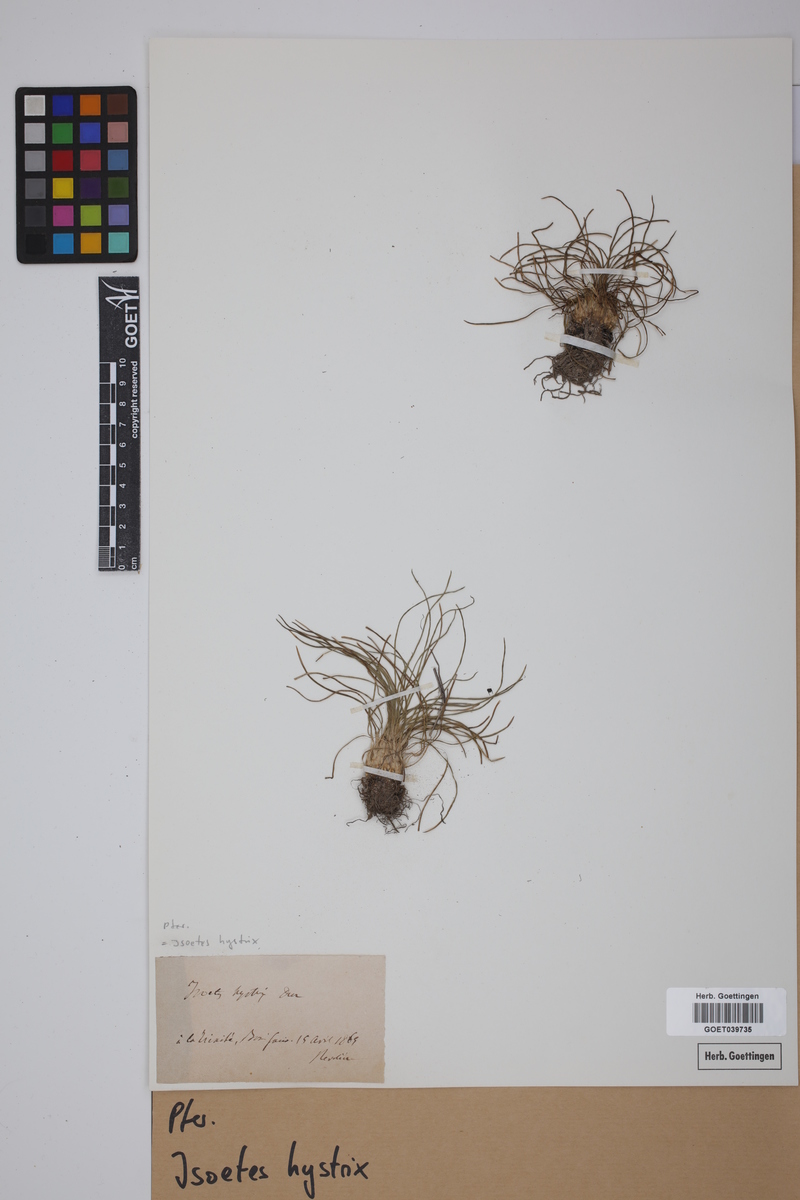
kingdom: Plantae
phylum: Tracheophyta
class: Lycopodiopsida
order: Isoetales
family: Isoetaceae
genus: Isoetes
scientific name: Isoetes histrix
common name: Land quillwort
